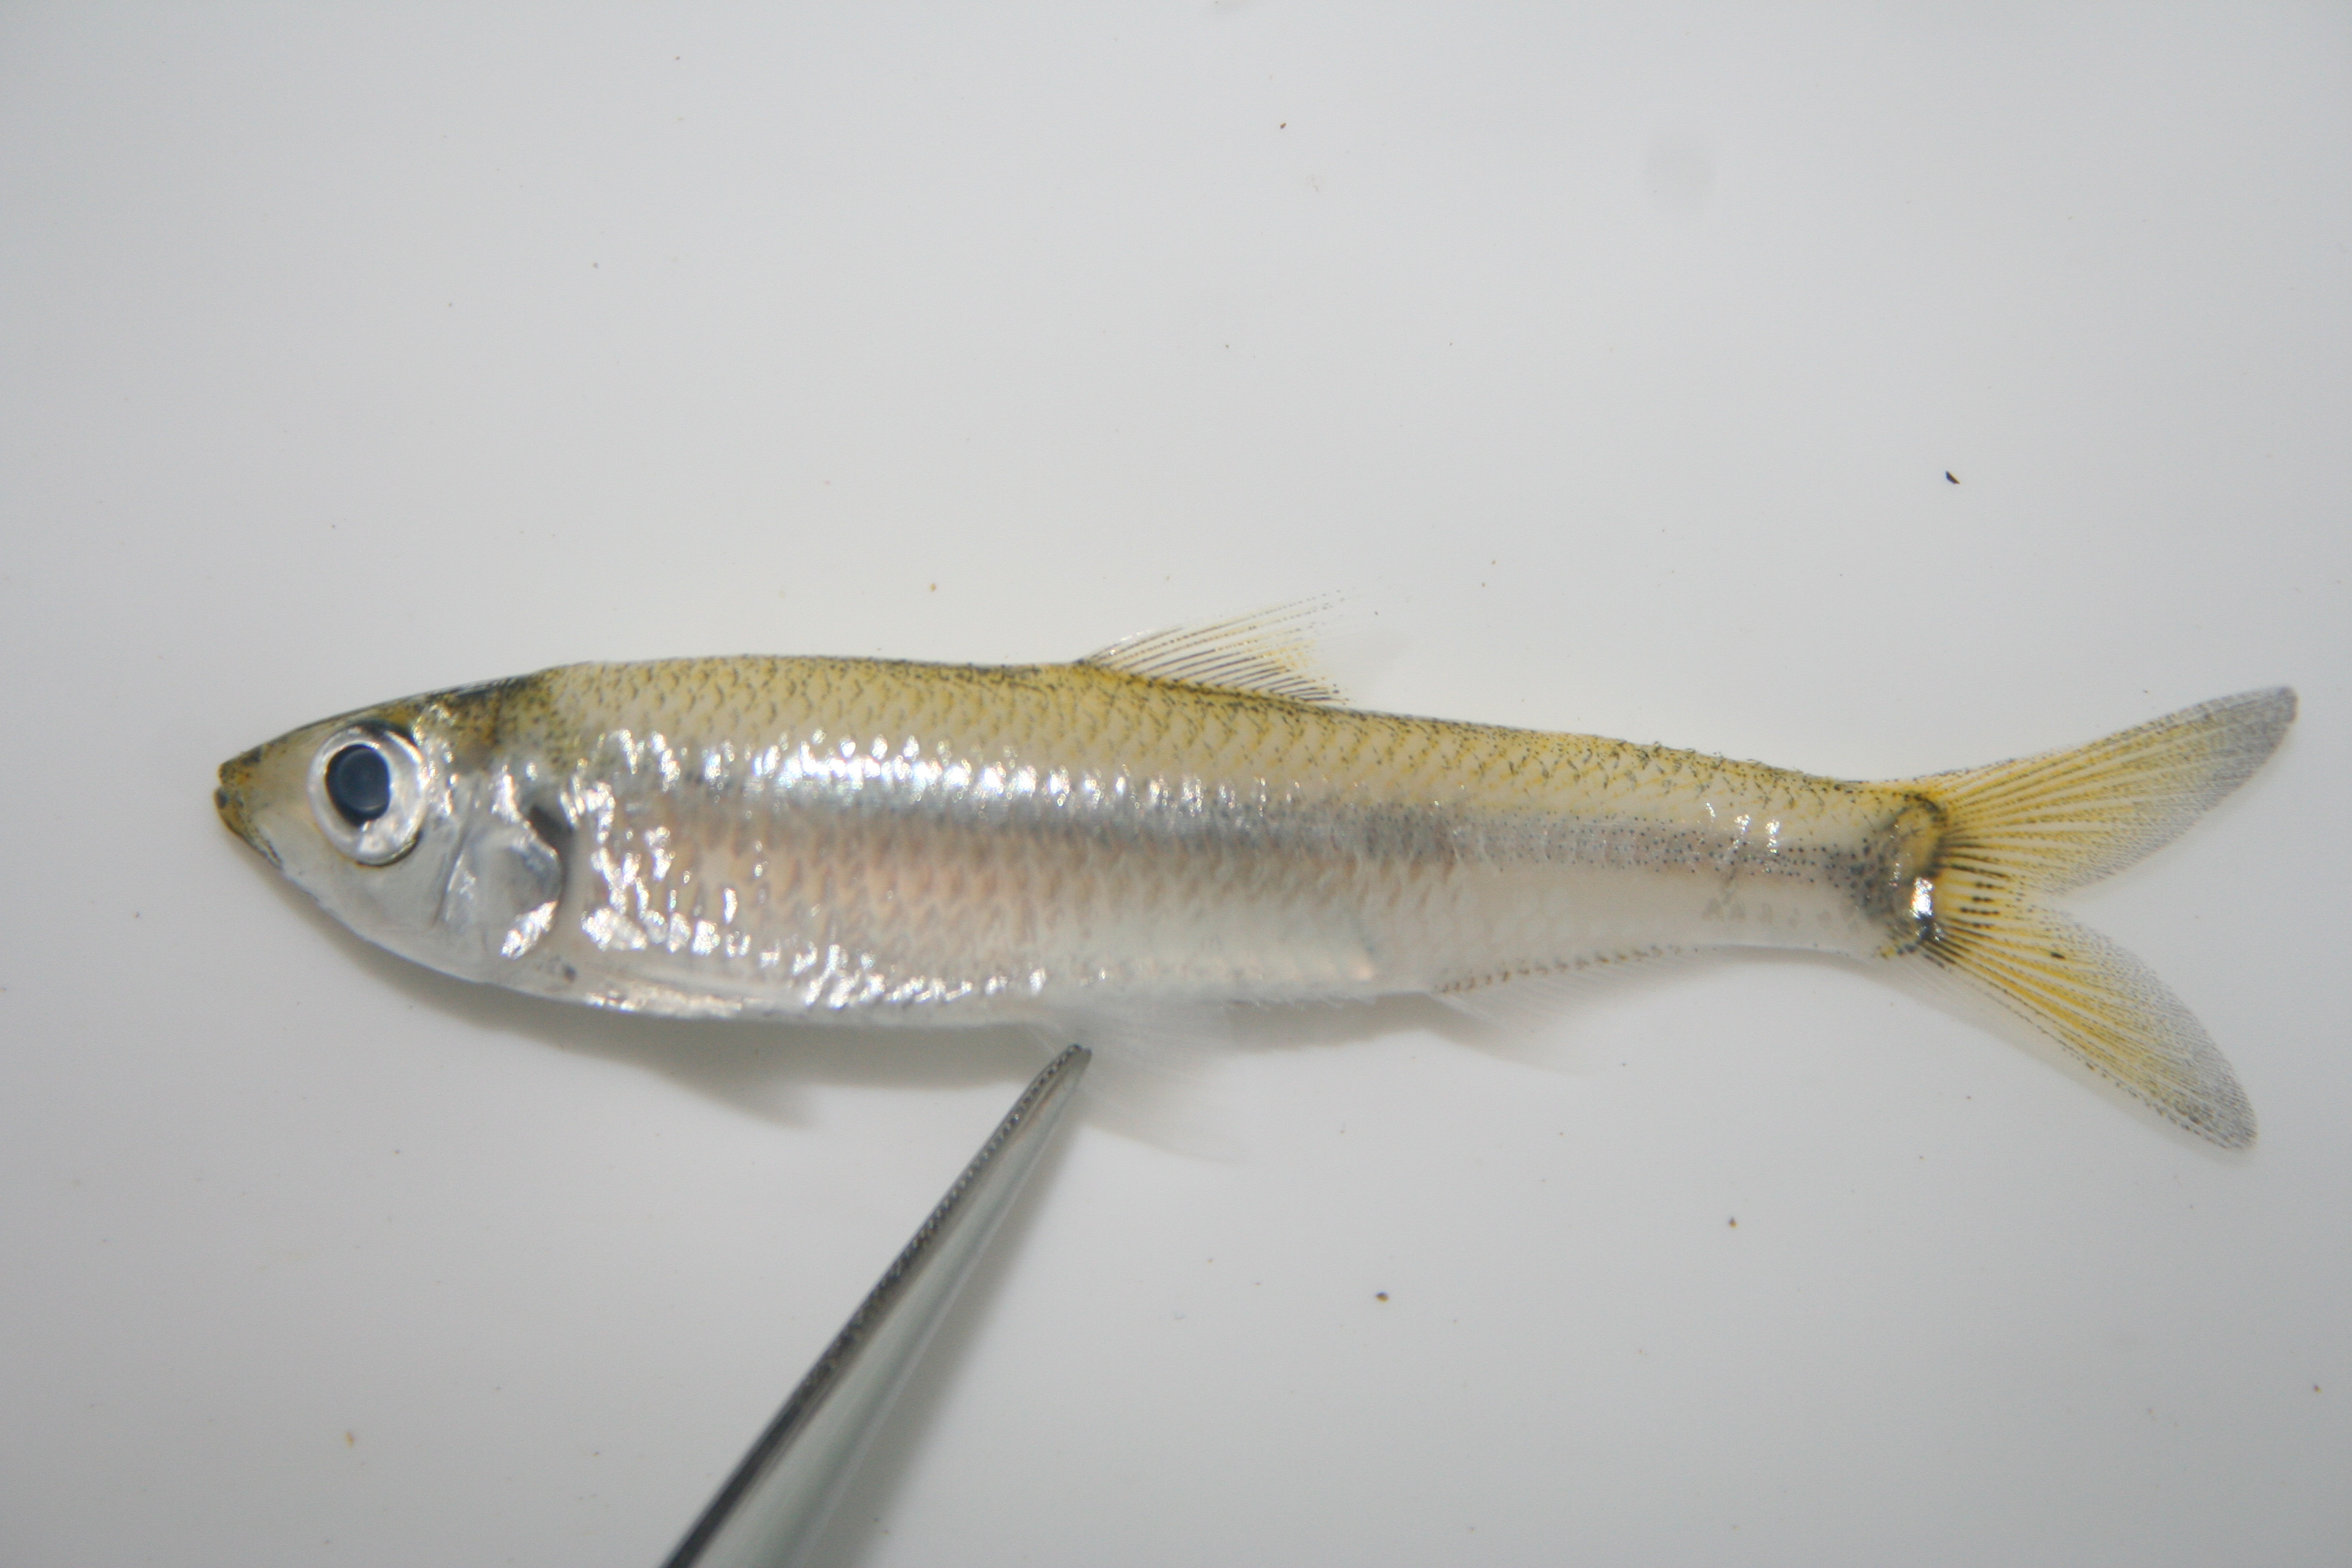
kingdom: Animalia
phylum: Chordata
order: Clupeiformes
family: Clupeidae
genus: Pellonula
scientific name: Pellonula
